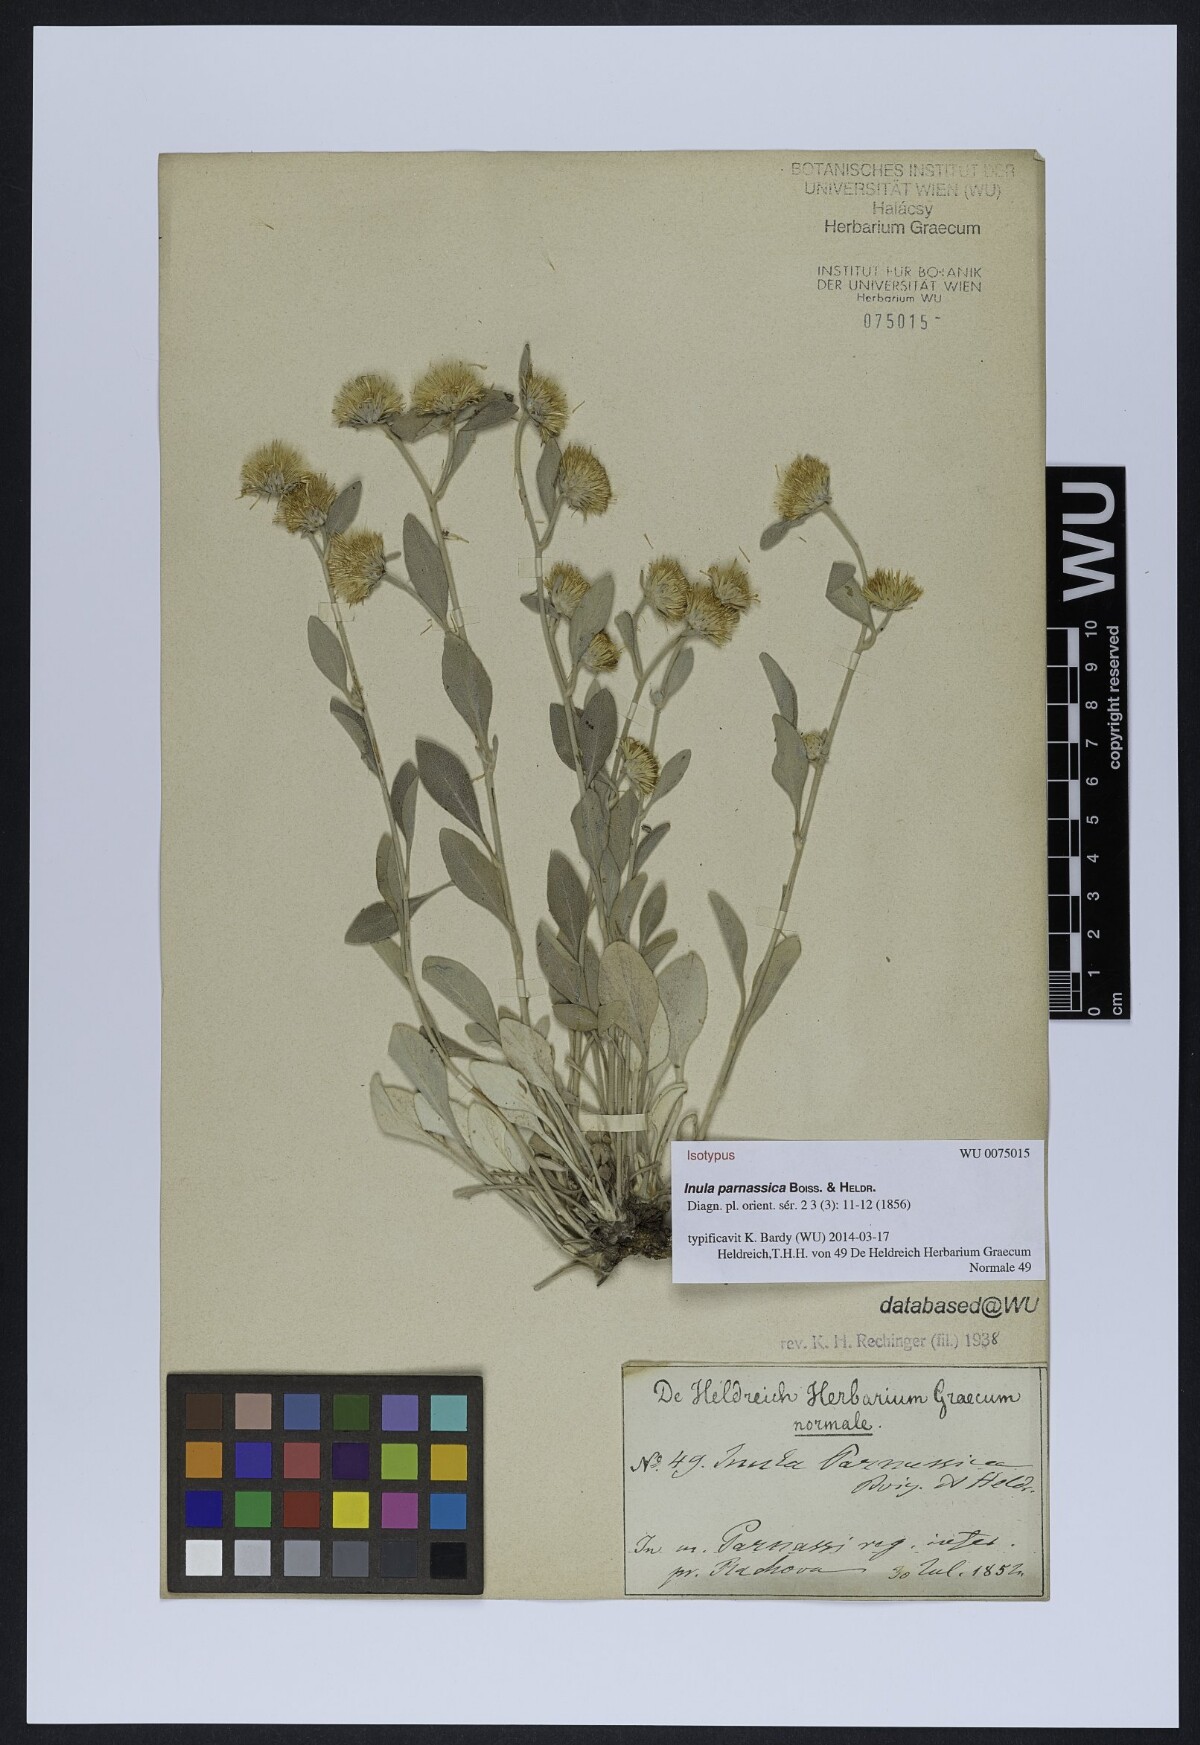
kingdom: Plantae
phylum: Tracheophyta
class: Magnoliopsida
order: Asterales
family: Asteraceae
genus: Pentanema
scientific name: Pentanema verbascifolium
